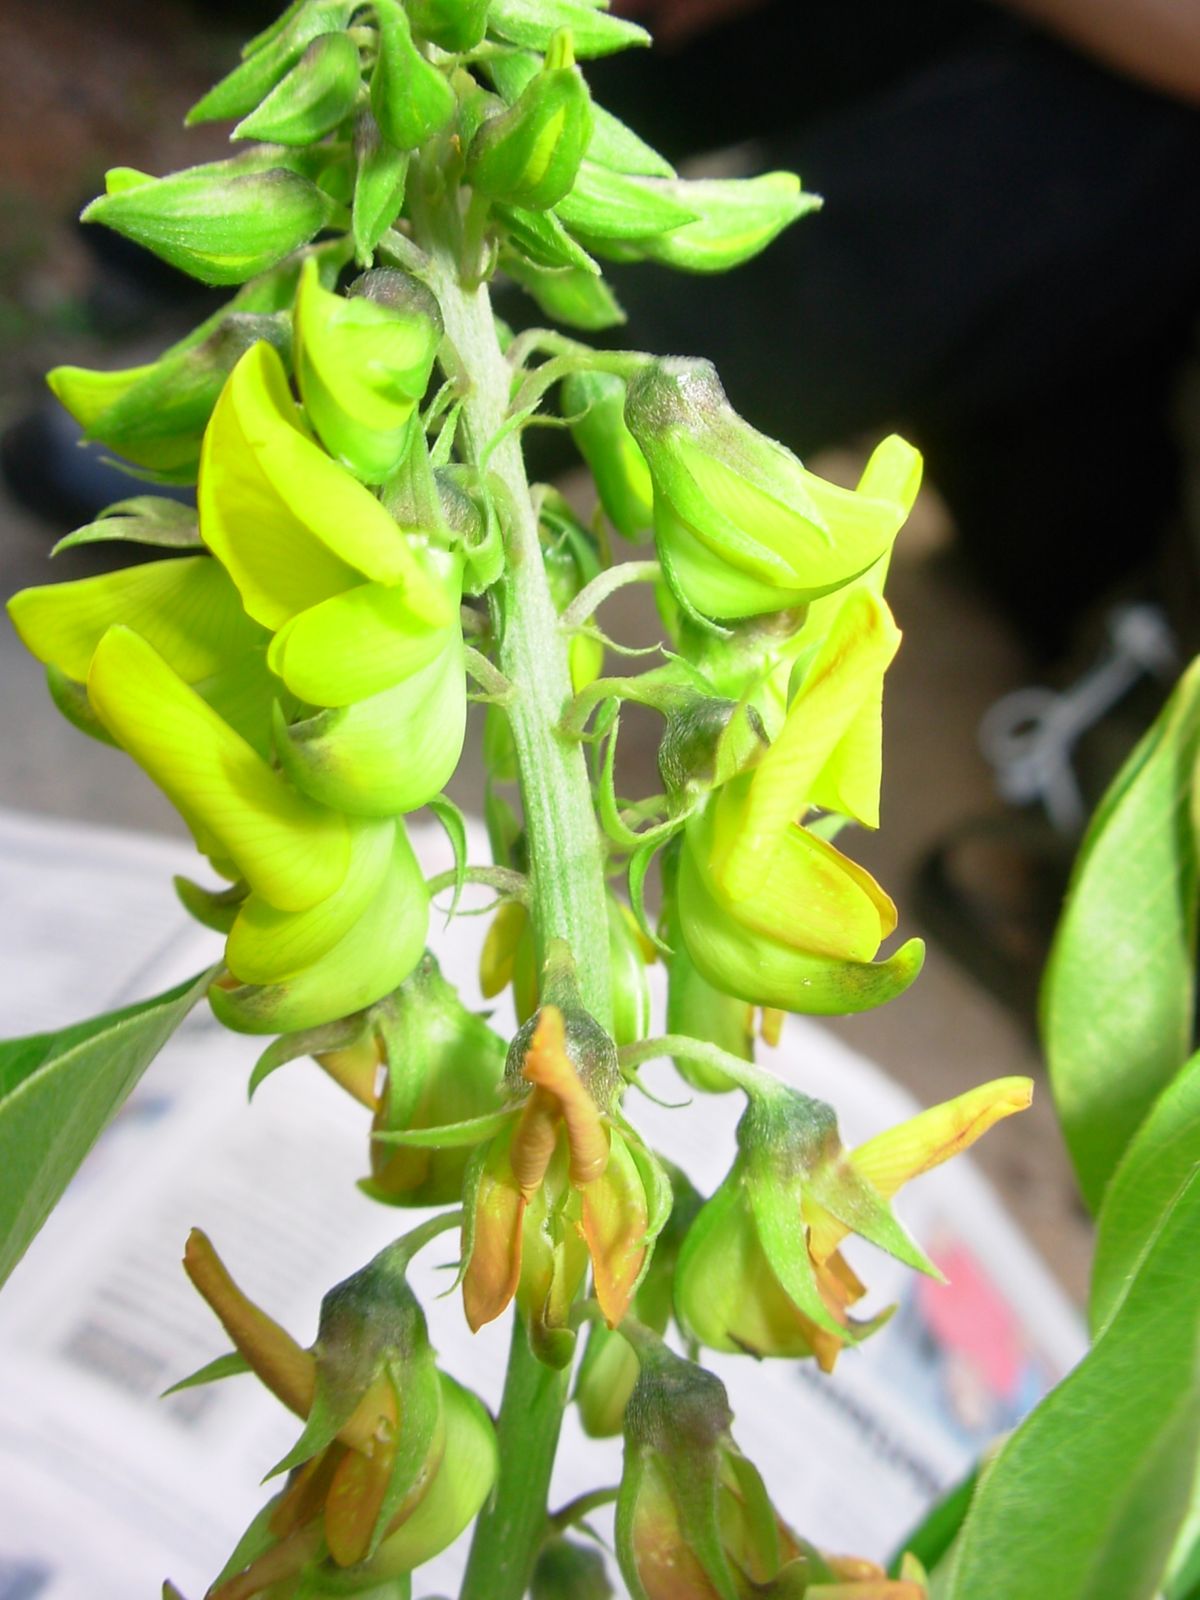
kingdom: Plantae
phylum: Tracheophyta
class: Magnoliopsida
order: Fabales
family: Fabaceae
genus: Crotalaria
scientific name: Crotalaria micans
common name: Caracas rattlebox
